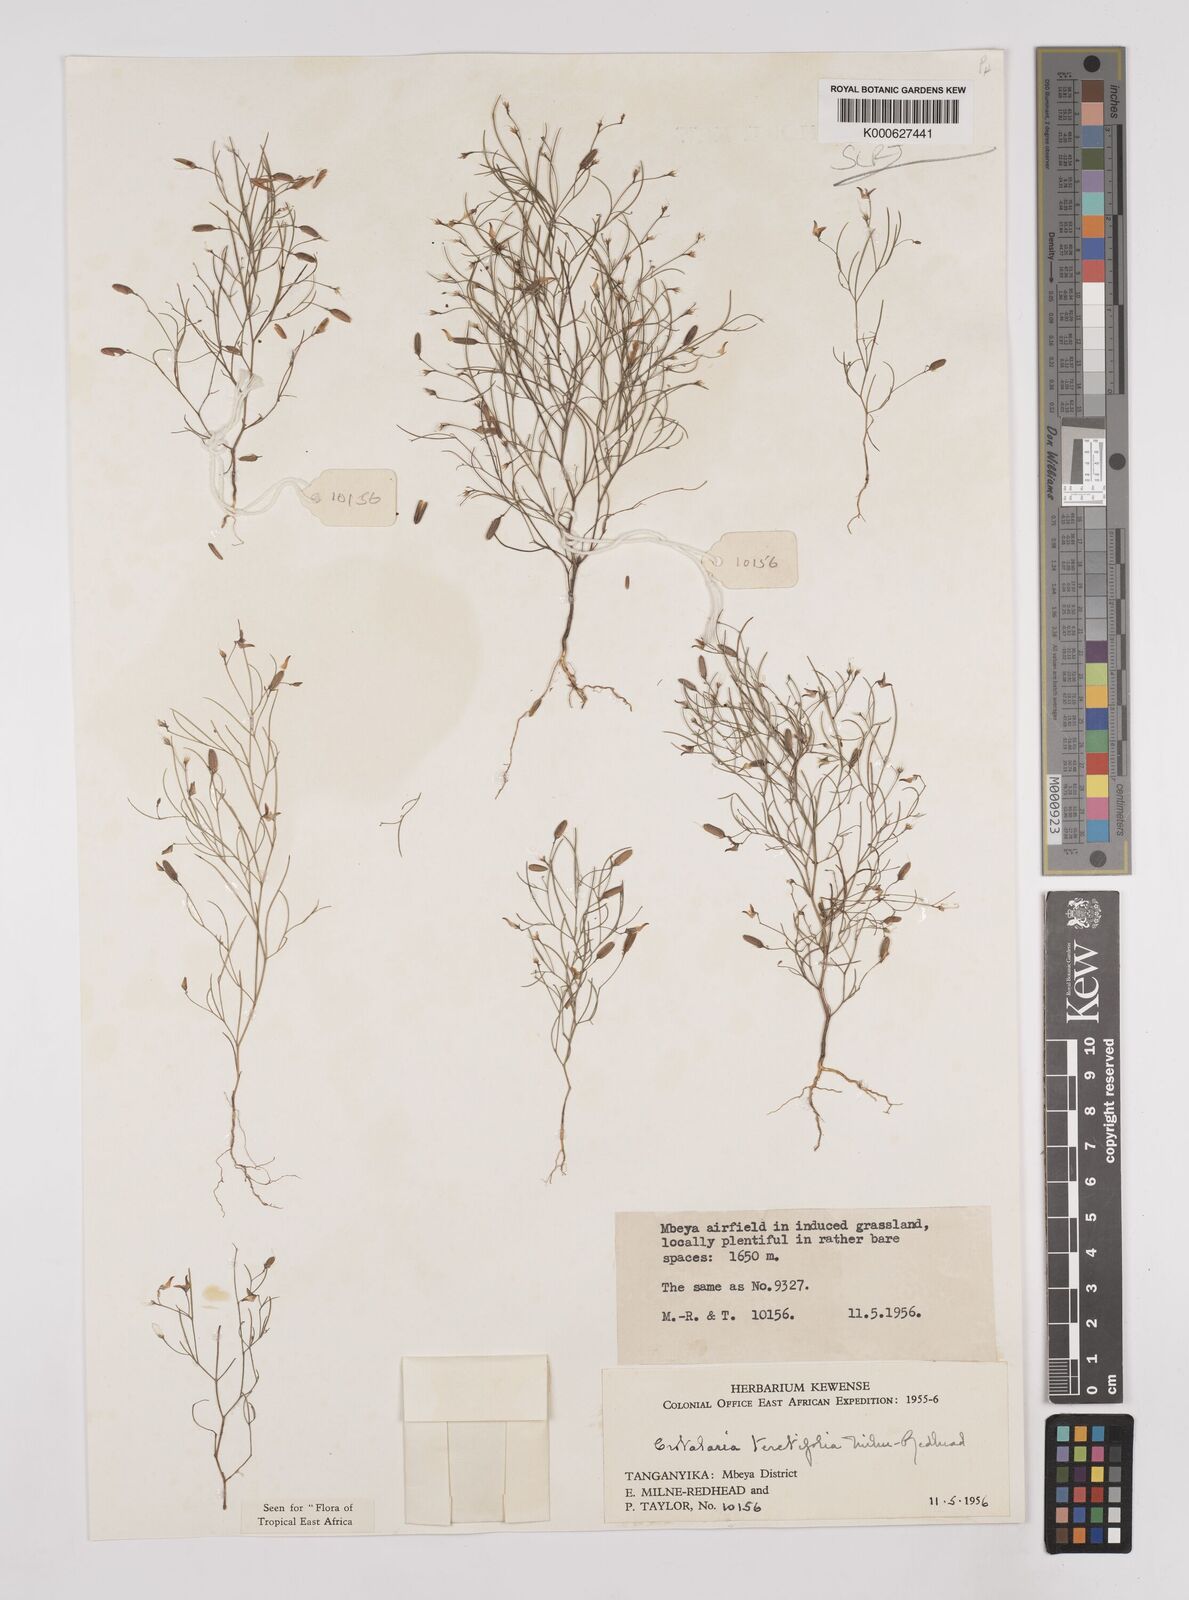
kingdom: Plantae
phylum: Tracheophyta
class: Magnoliopsida
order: Fabales
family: Fabaceae
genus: Crotalaria
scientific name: Crotalaria teretifolia
